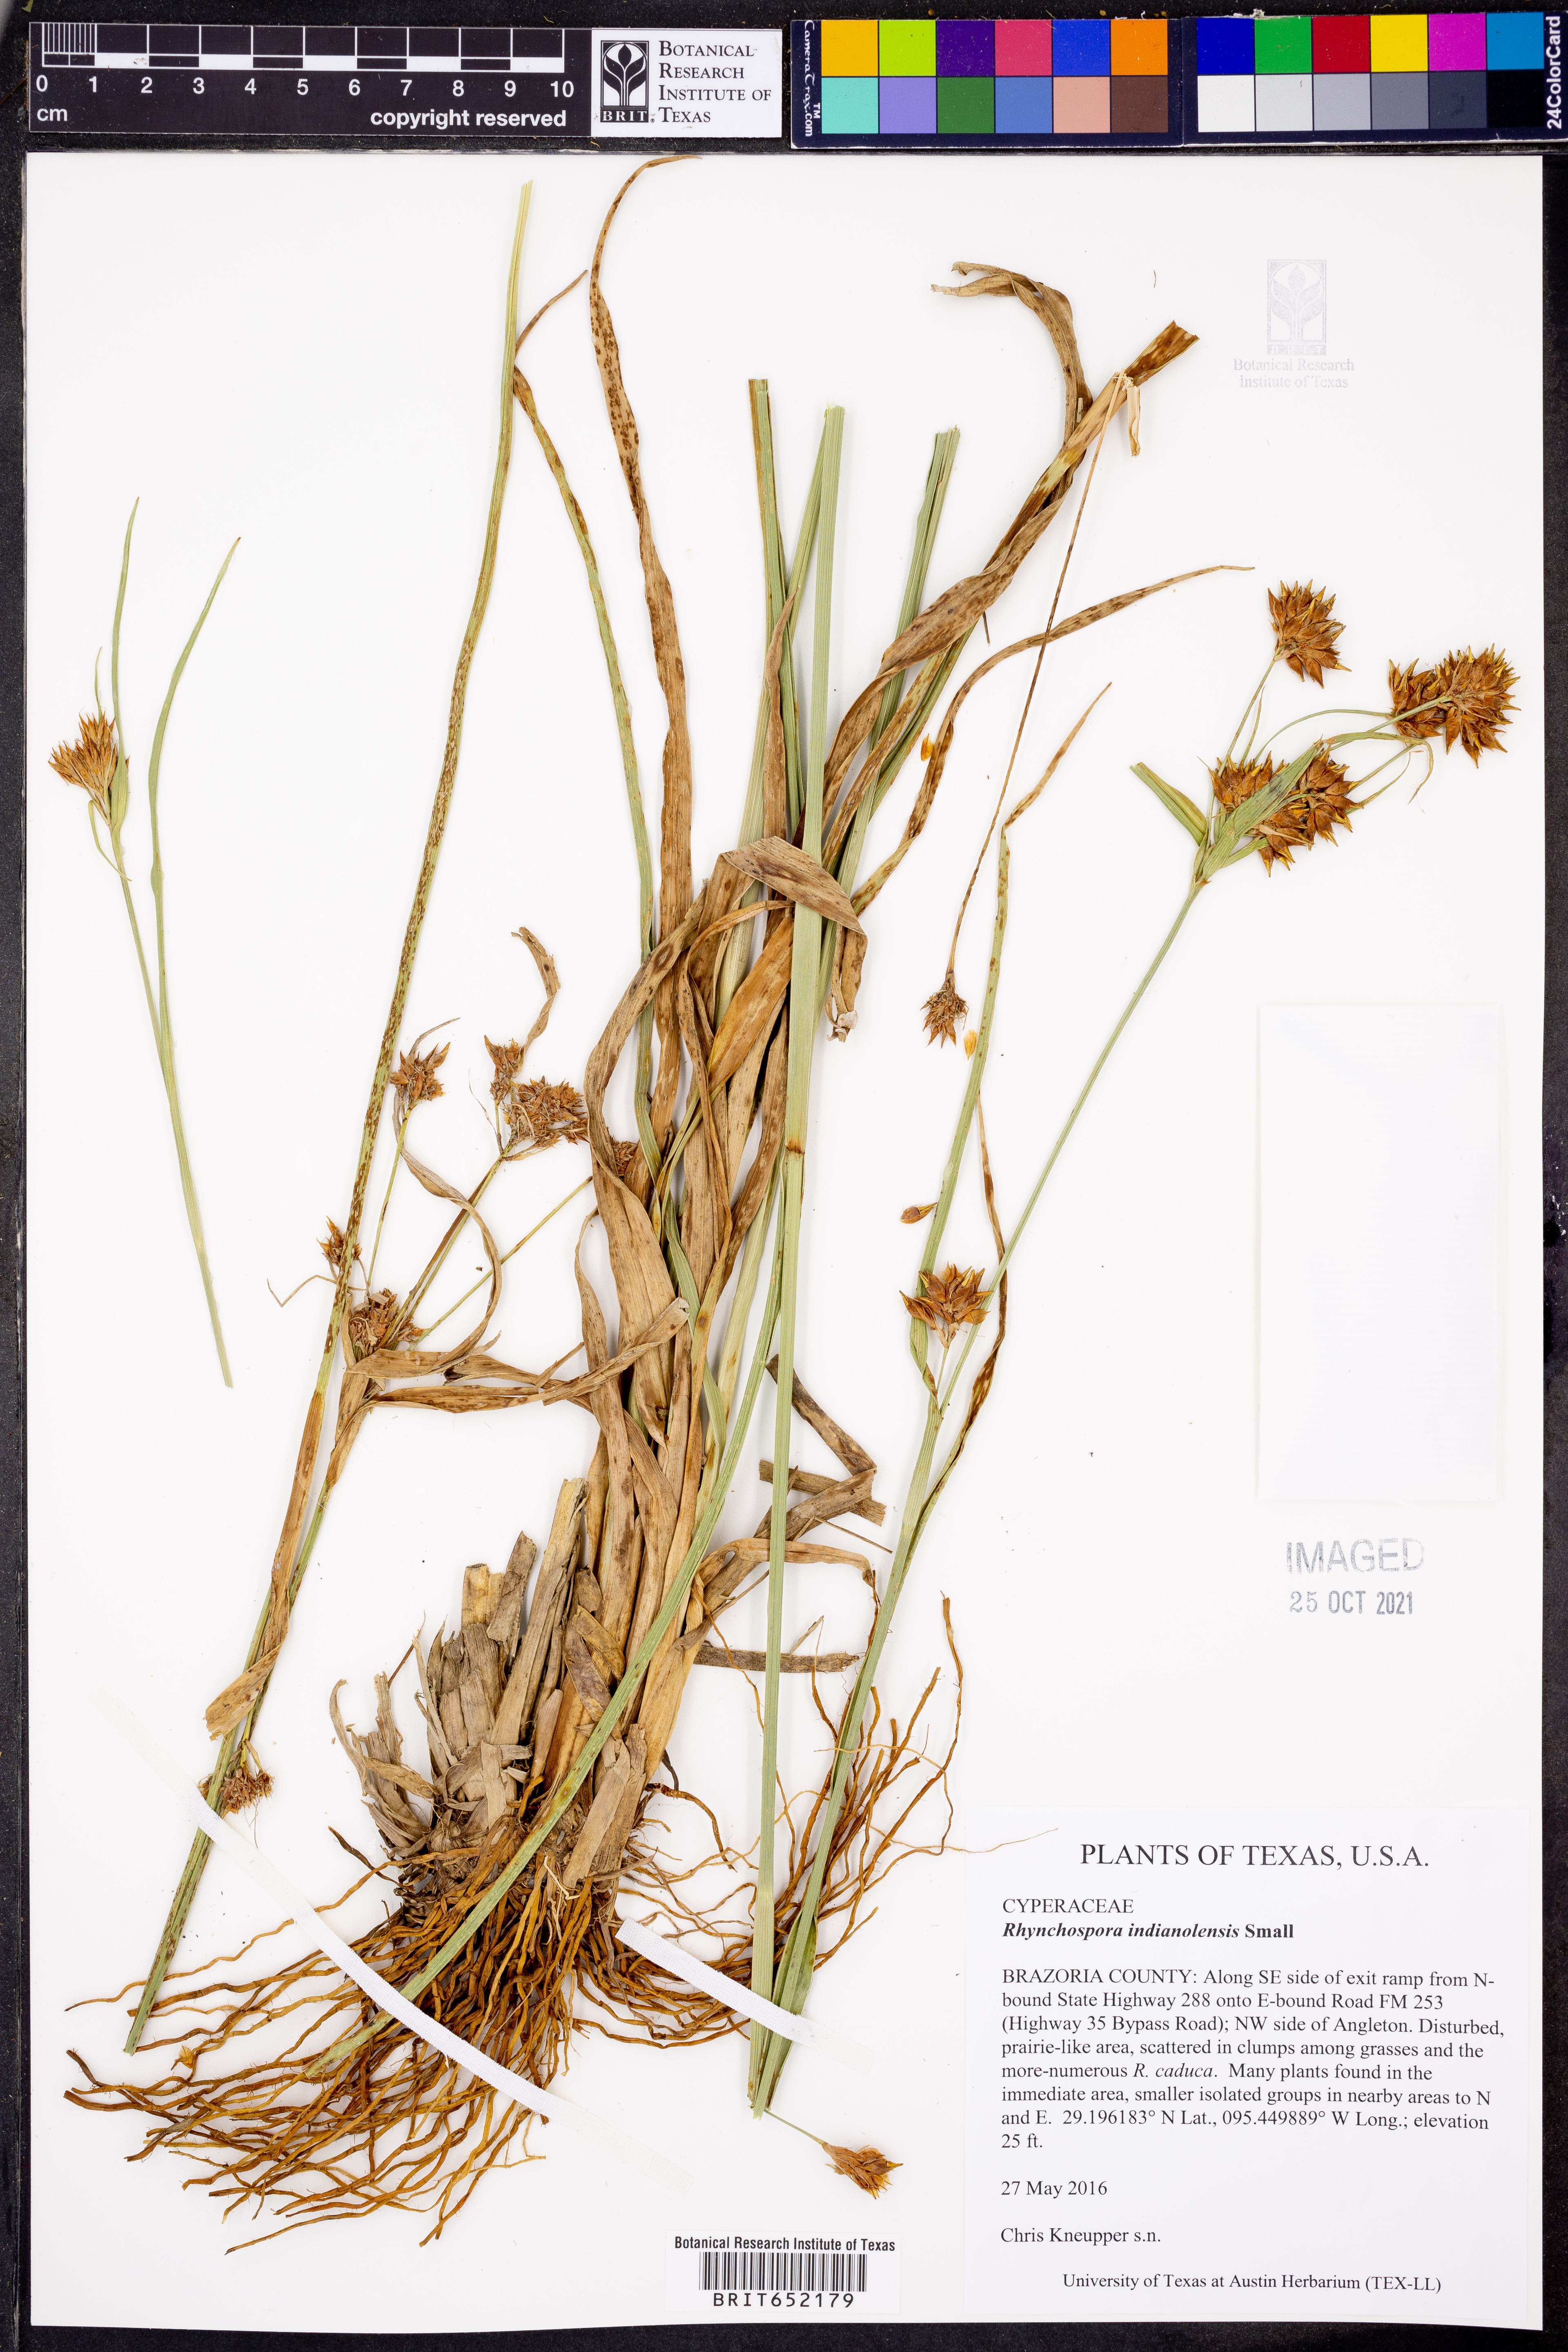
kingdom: Plantae
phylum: Tracheophyta
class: Liliopsida
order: Poales
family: Cyperaceae
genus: Rhynchospora
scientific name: Rhynchospora scutellata
